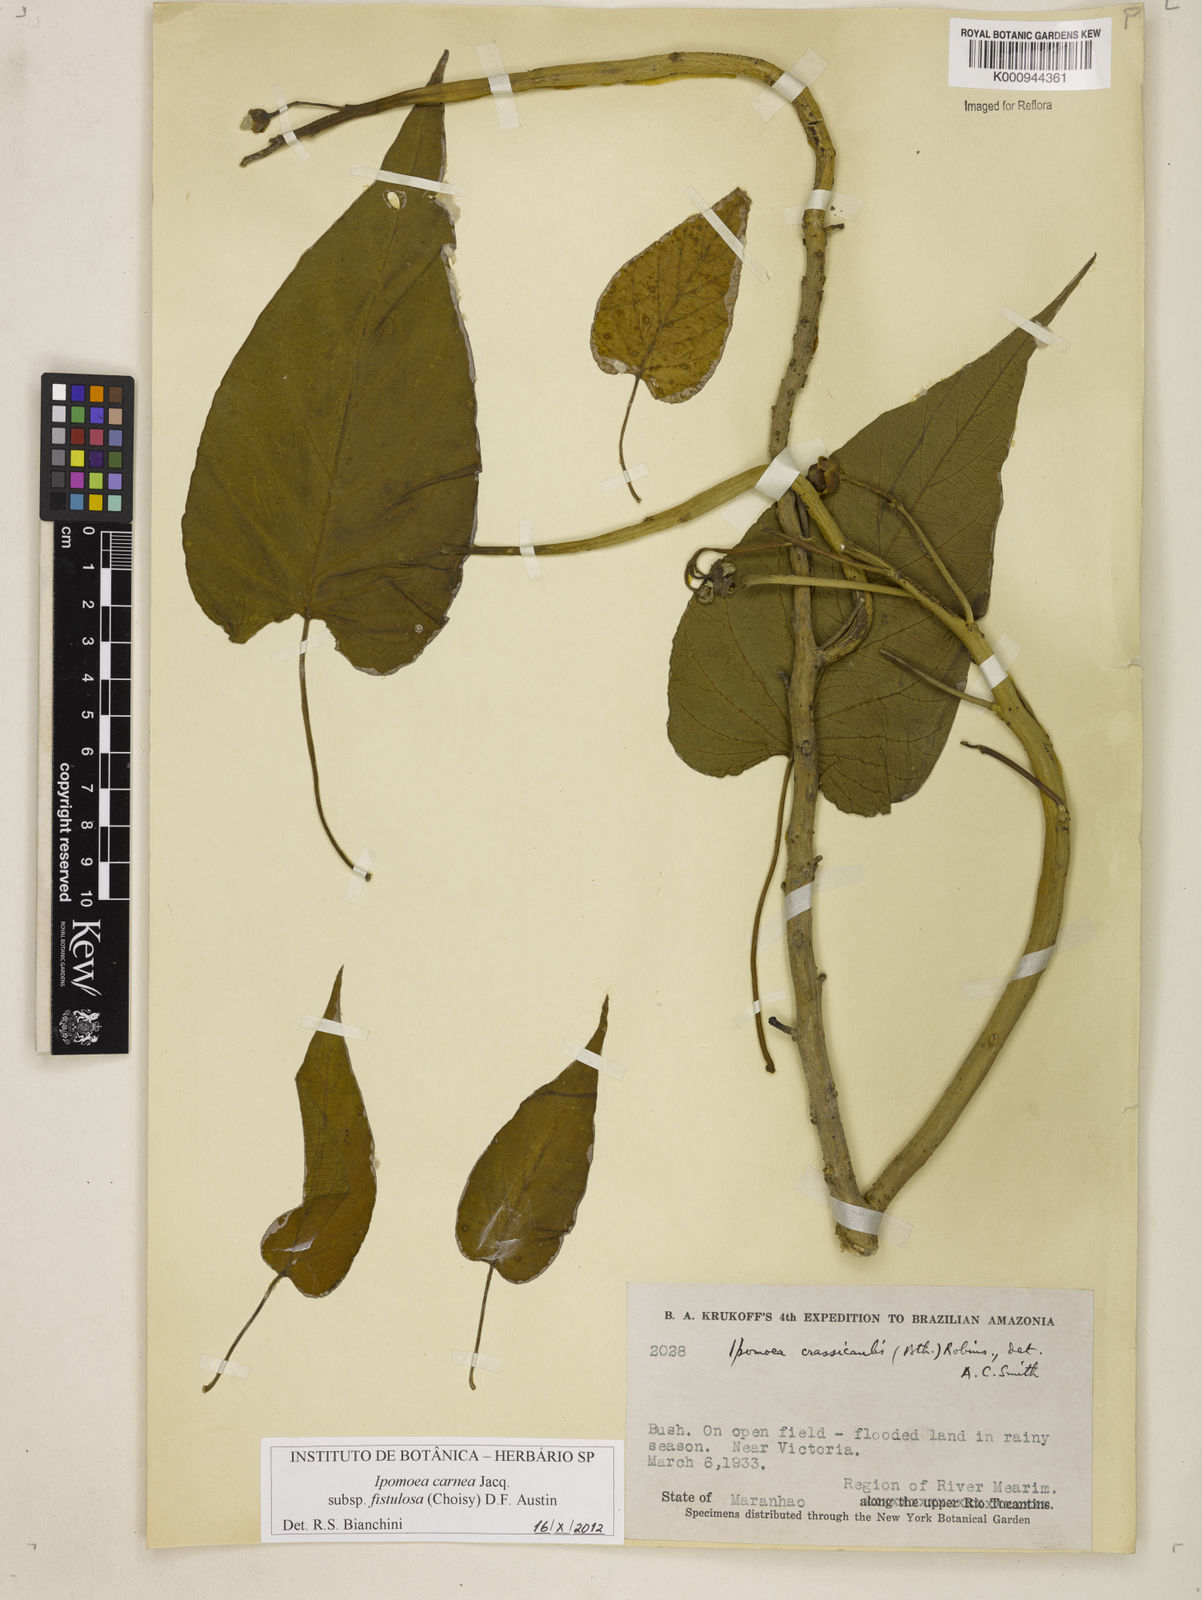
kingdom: Plantae
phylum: Tracheophyta
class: Magnoliopsida
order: Solanales
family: Convolvulaceae
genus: Ipomoea
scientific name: Ipomoea carnea
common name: Morning-glory
